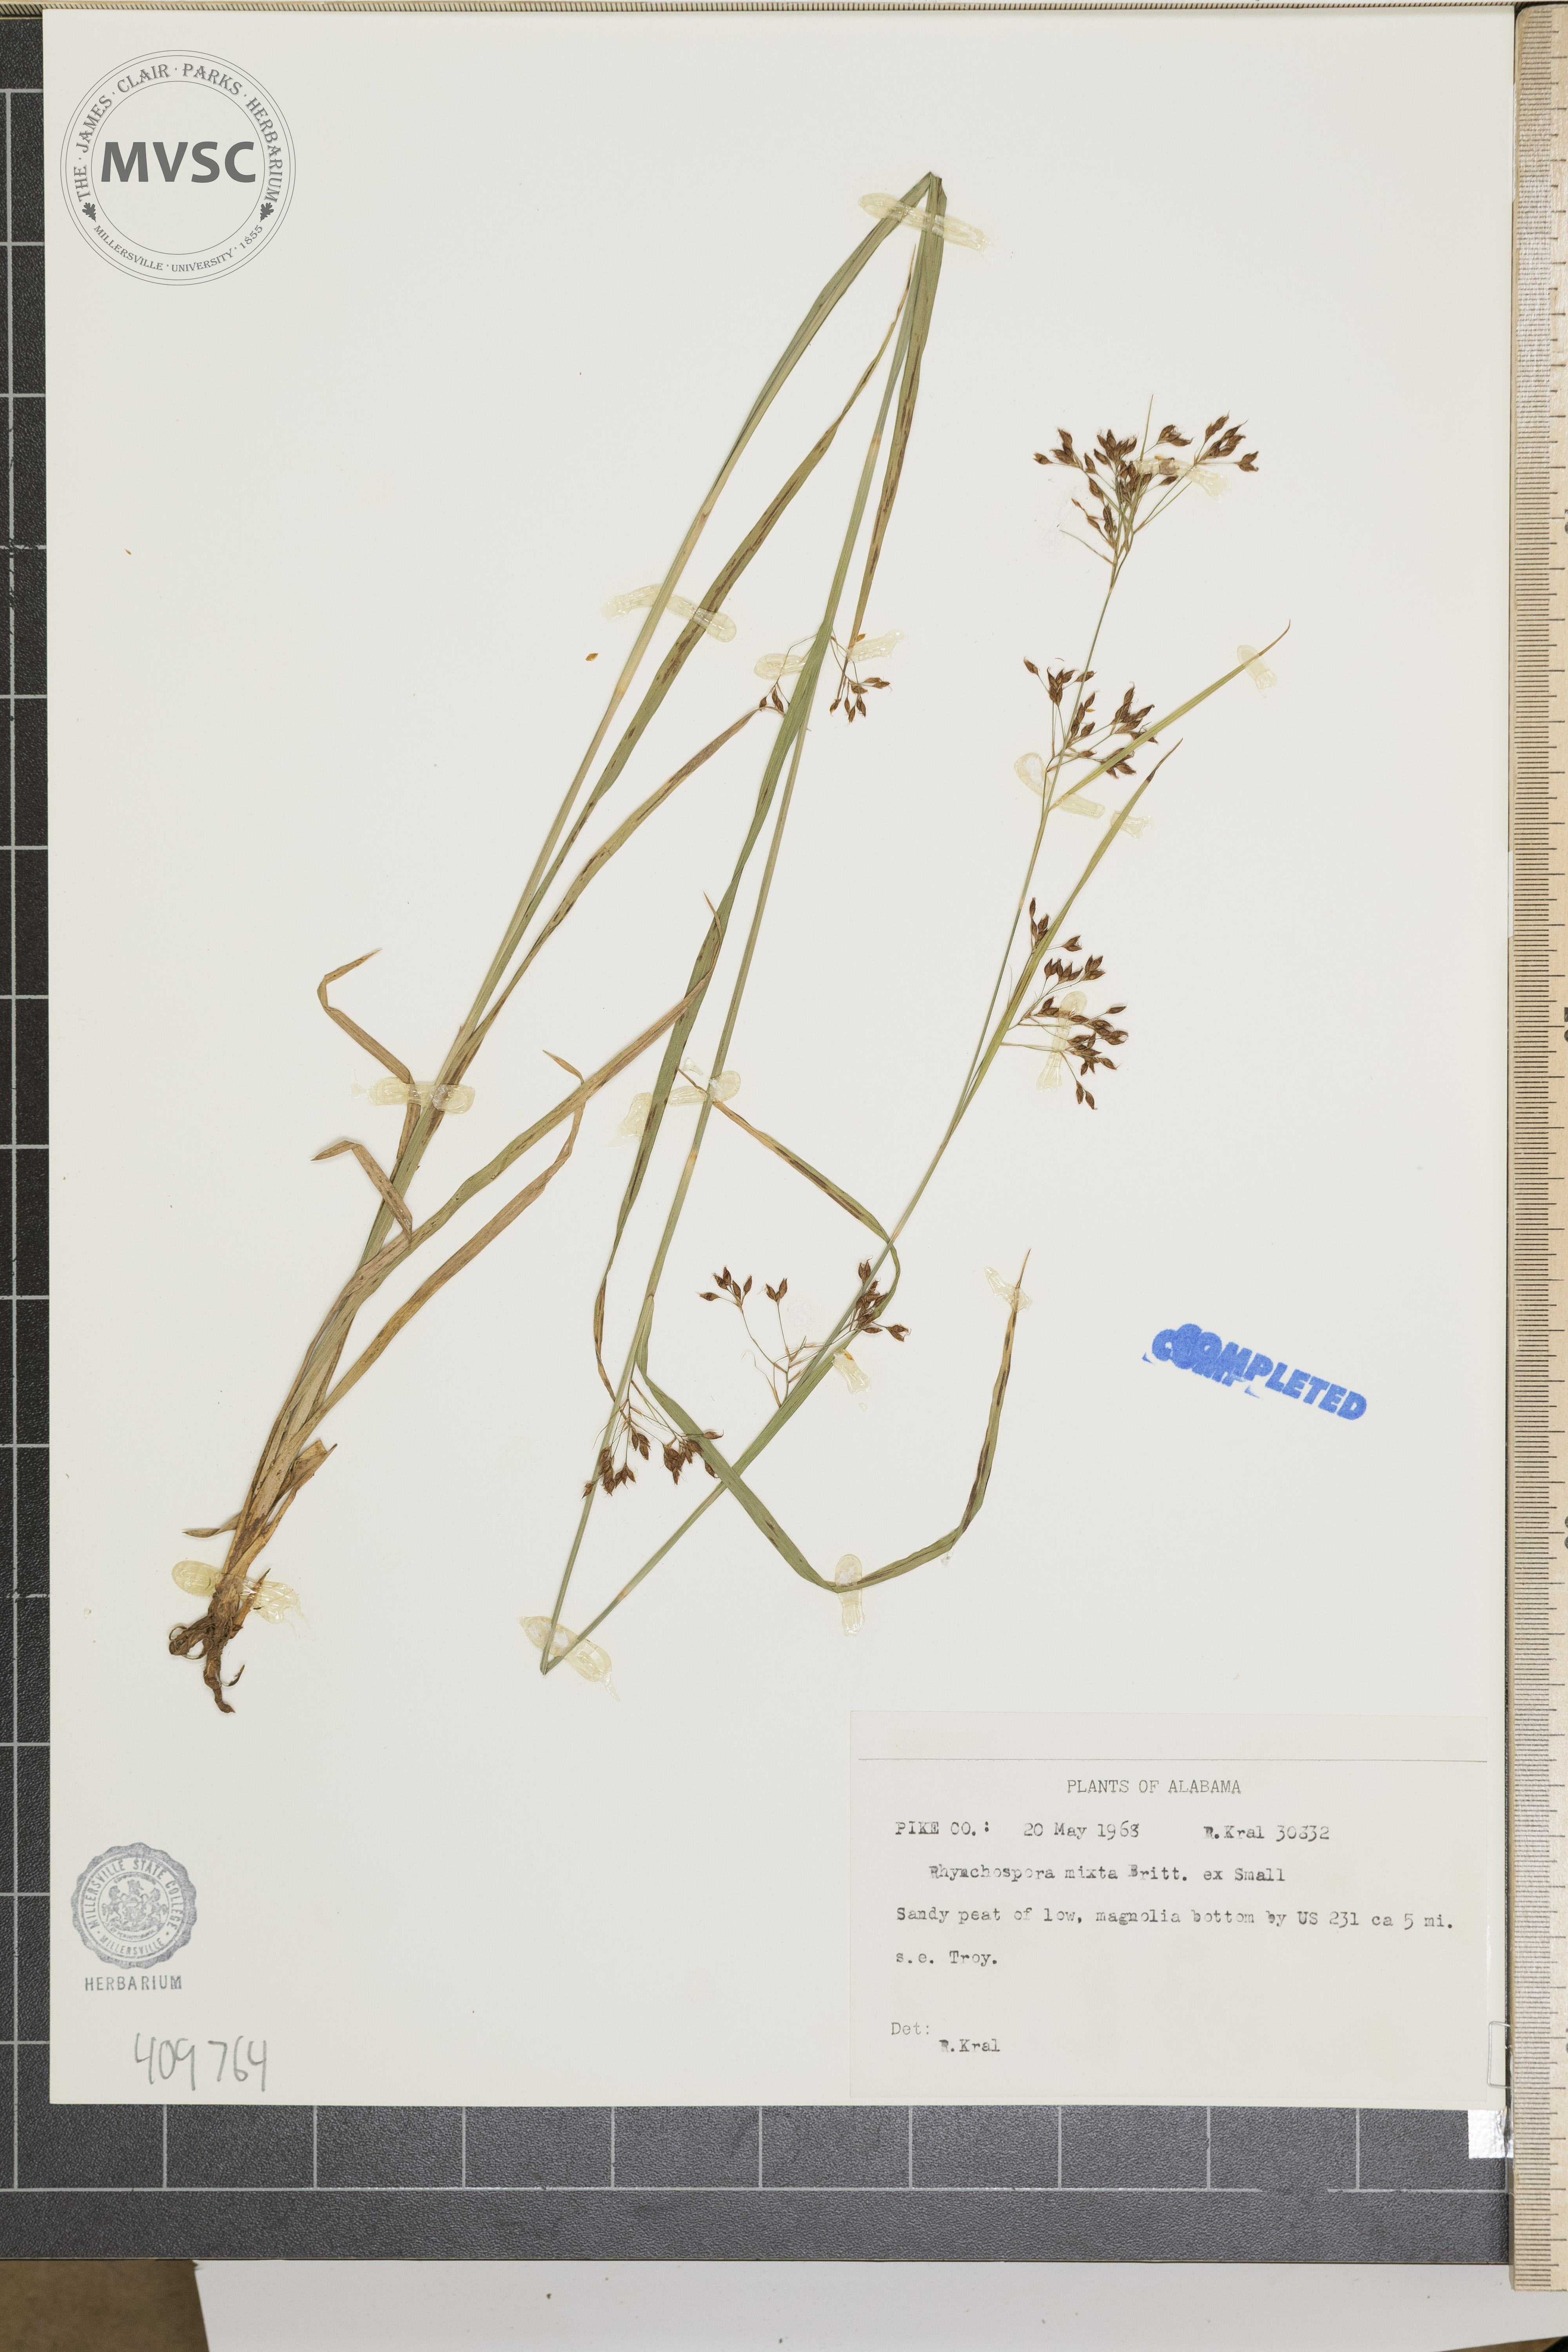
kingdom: Plantae
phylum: Tracheophyta
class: Liliopsida
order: Poales
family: Cyperaceae
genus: Rhynchospora
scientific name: Rhynchospora mixta
